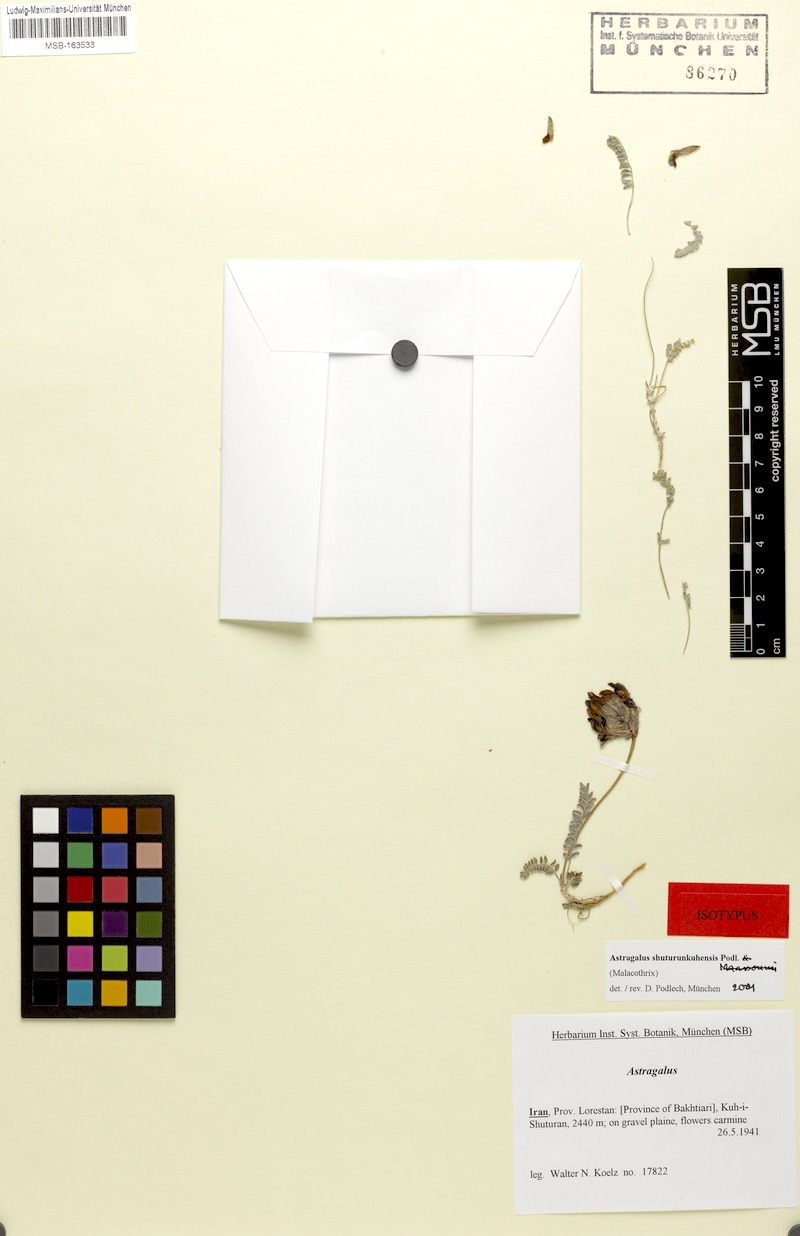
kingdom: Plantae
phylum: Tracheophyta
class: Magnoliopsida
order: Fabales
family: Fabaceae
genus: Astragalus
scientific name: Astragalus shuturunkuhensis
